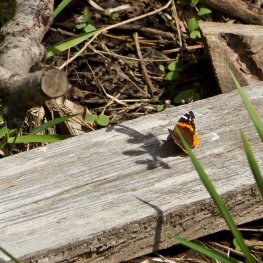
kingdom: Animalia
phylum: Arthropoda
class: Insecta
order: Lepidoptera
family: Nymphalidae
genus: Vanessa
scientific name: Vanessa atalanta
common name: Red Admiral
